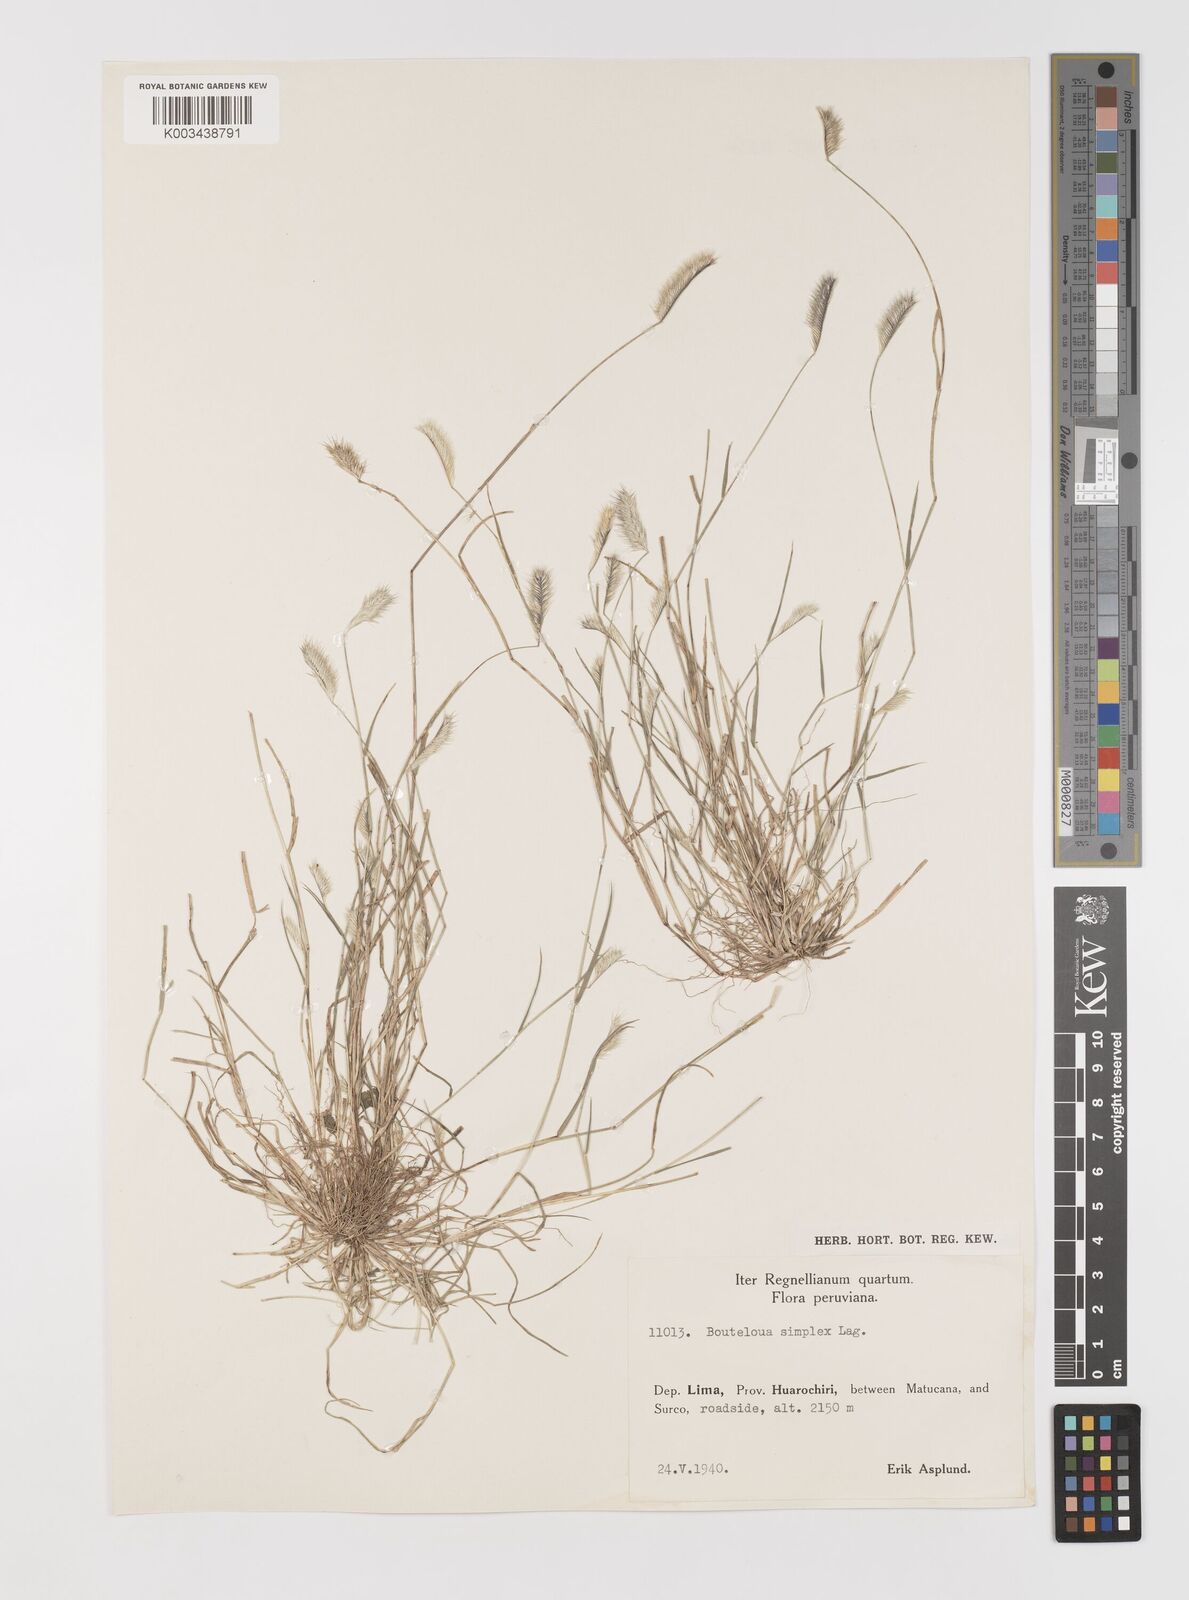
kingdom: Plantae
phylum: Tracheophyta
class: Liliopsida
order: Poales
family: Poaceae
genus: Bouteloua
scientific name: Bouteloua simplex
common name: Mat grama
